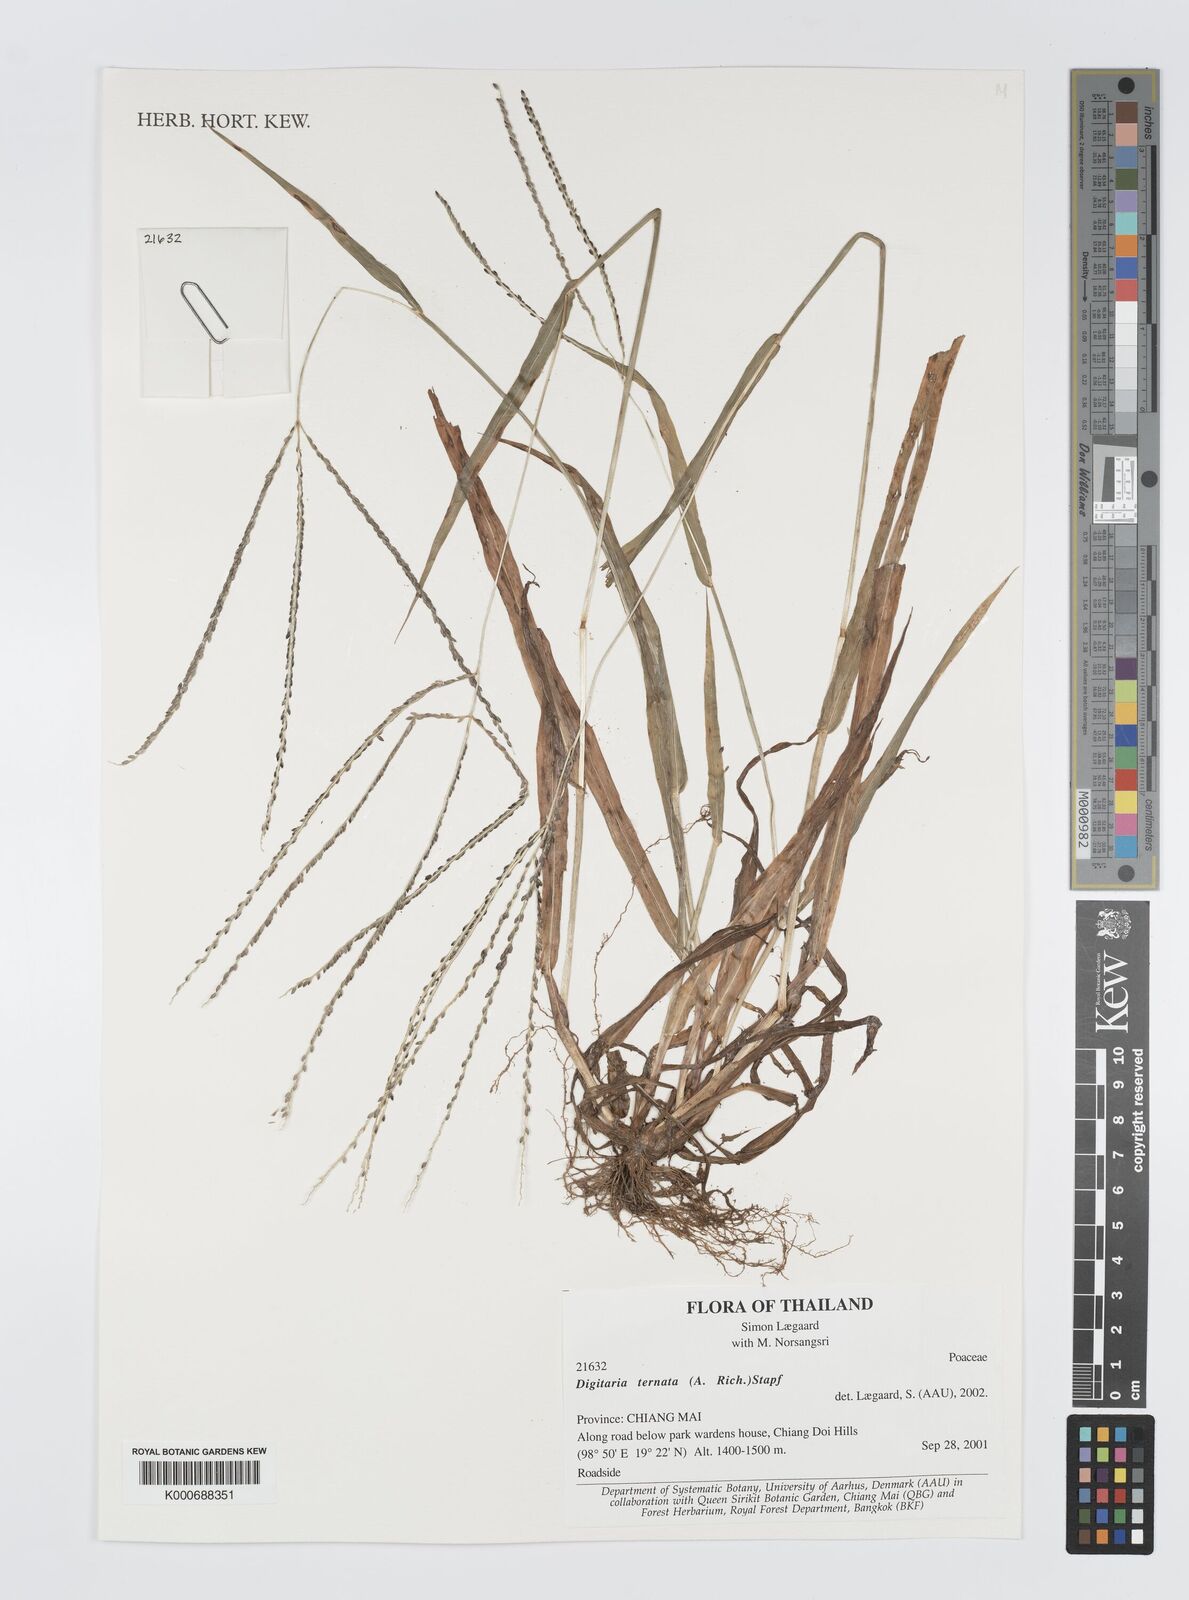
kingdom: Plantae
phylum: Tracheophyta
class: Liliopsida
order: Poales
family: Poaceae
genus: Digitaria
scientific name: Digitaria ternata
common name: Blackseed crabgrass
